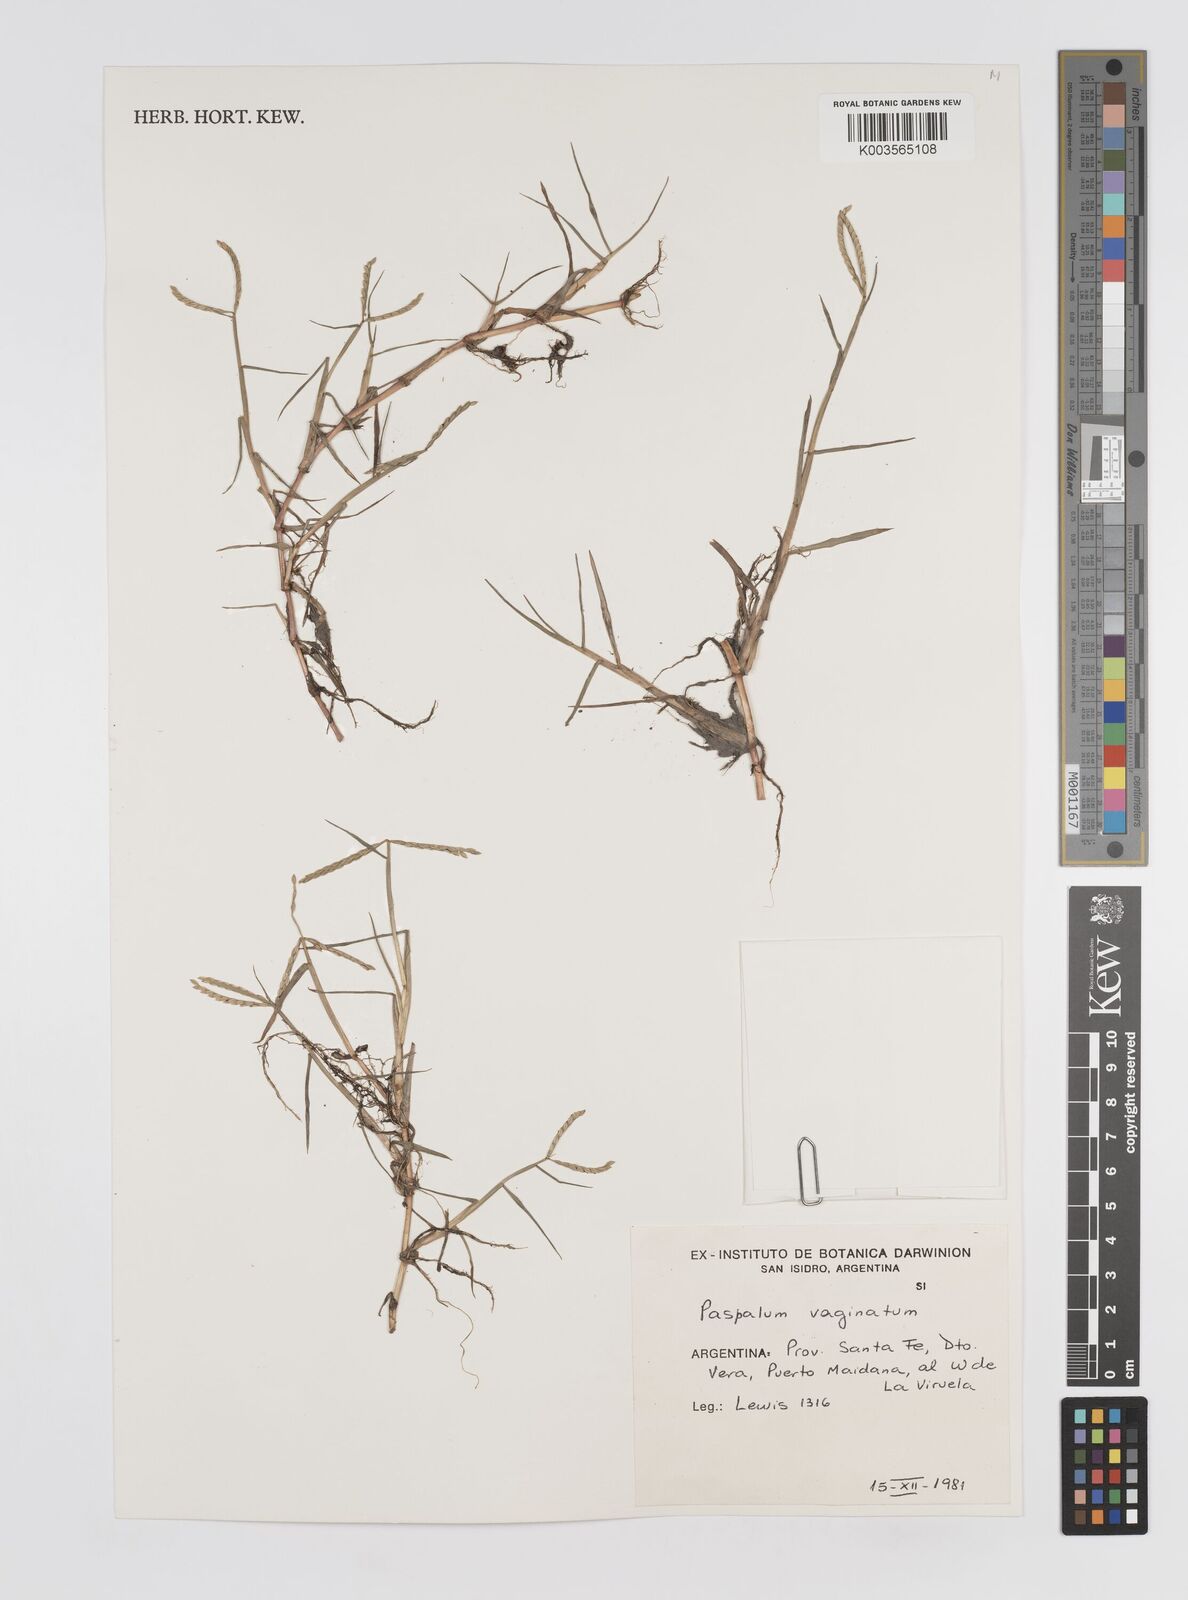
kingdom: Plantae
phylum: Tracheophyta
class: Liliopsida
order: Poales
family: Poaceae
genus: Paspalum
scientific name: Paspalum vaginatum
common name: Seashore paspalum
